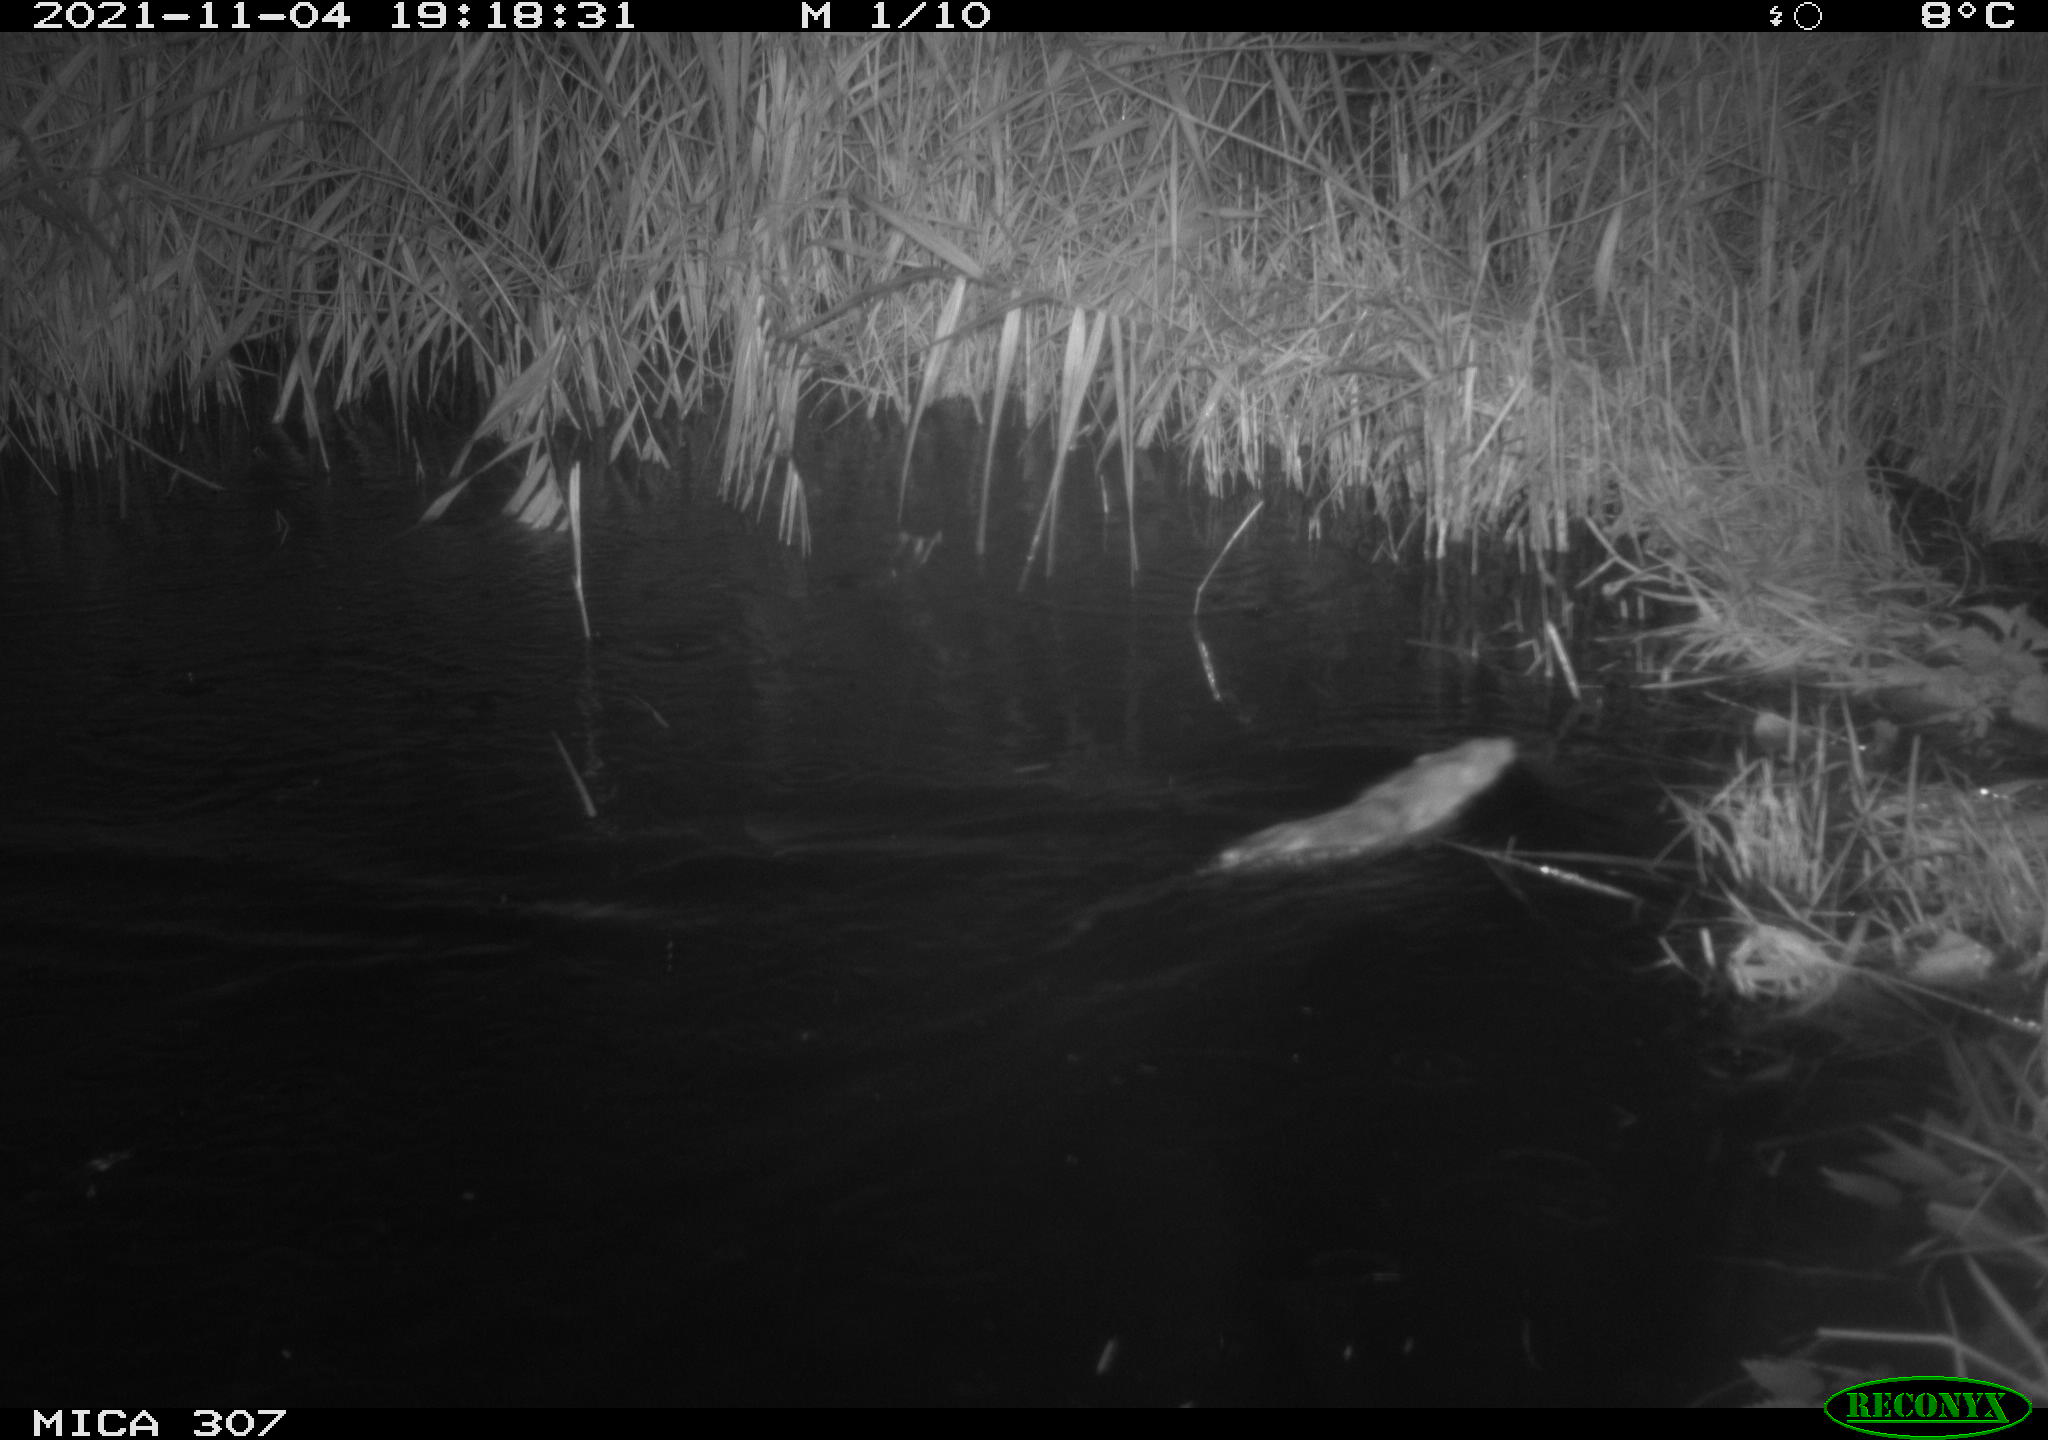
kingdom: Animalia
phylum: Chordata
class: Mammalia
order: Rodentia
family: Muridae
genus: Rattus
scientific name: Rattus norvegicus
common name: Brown rat
